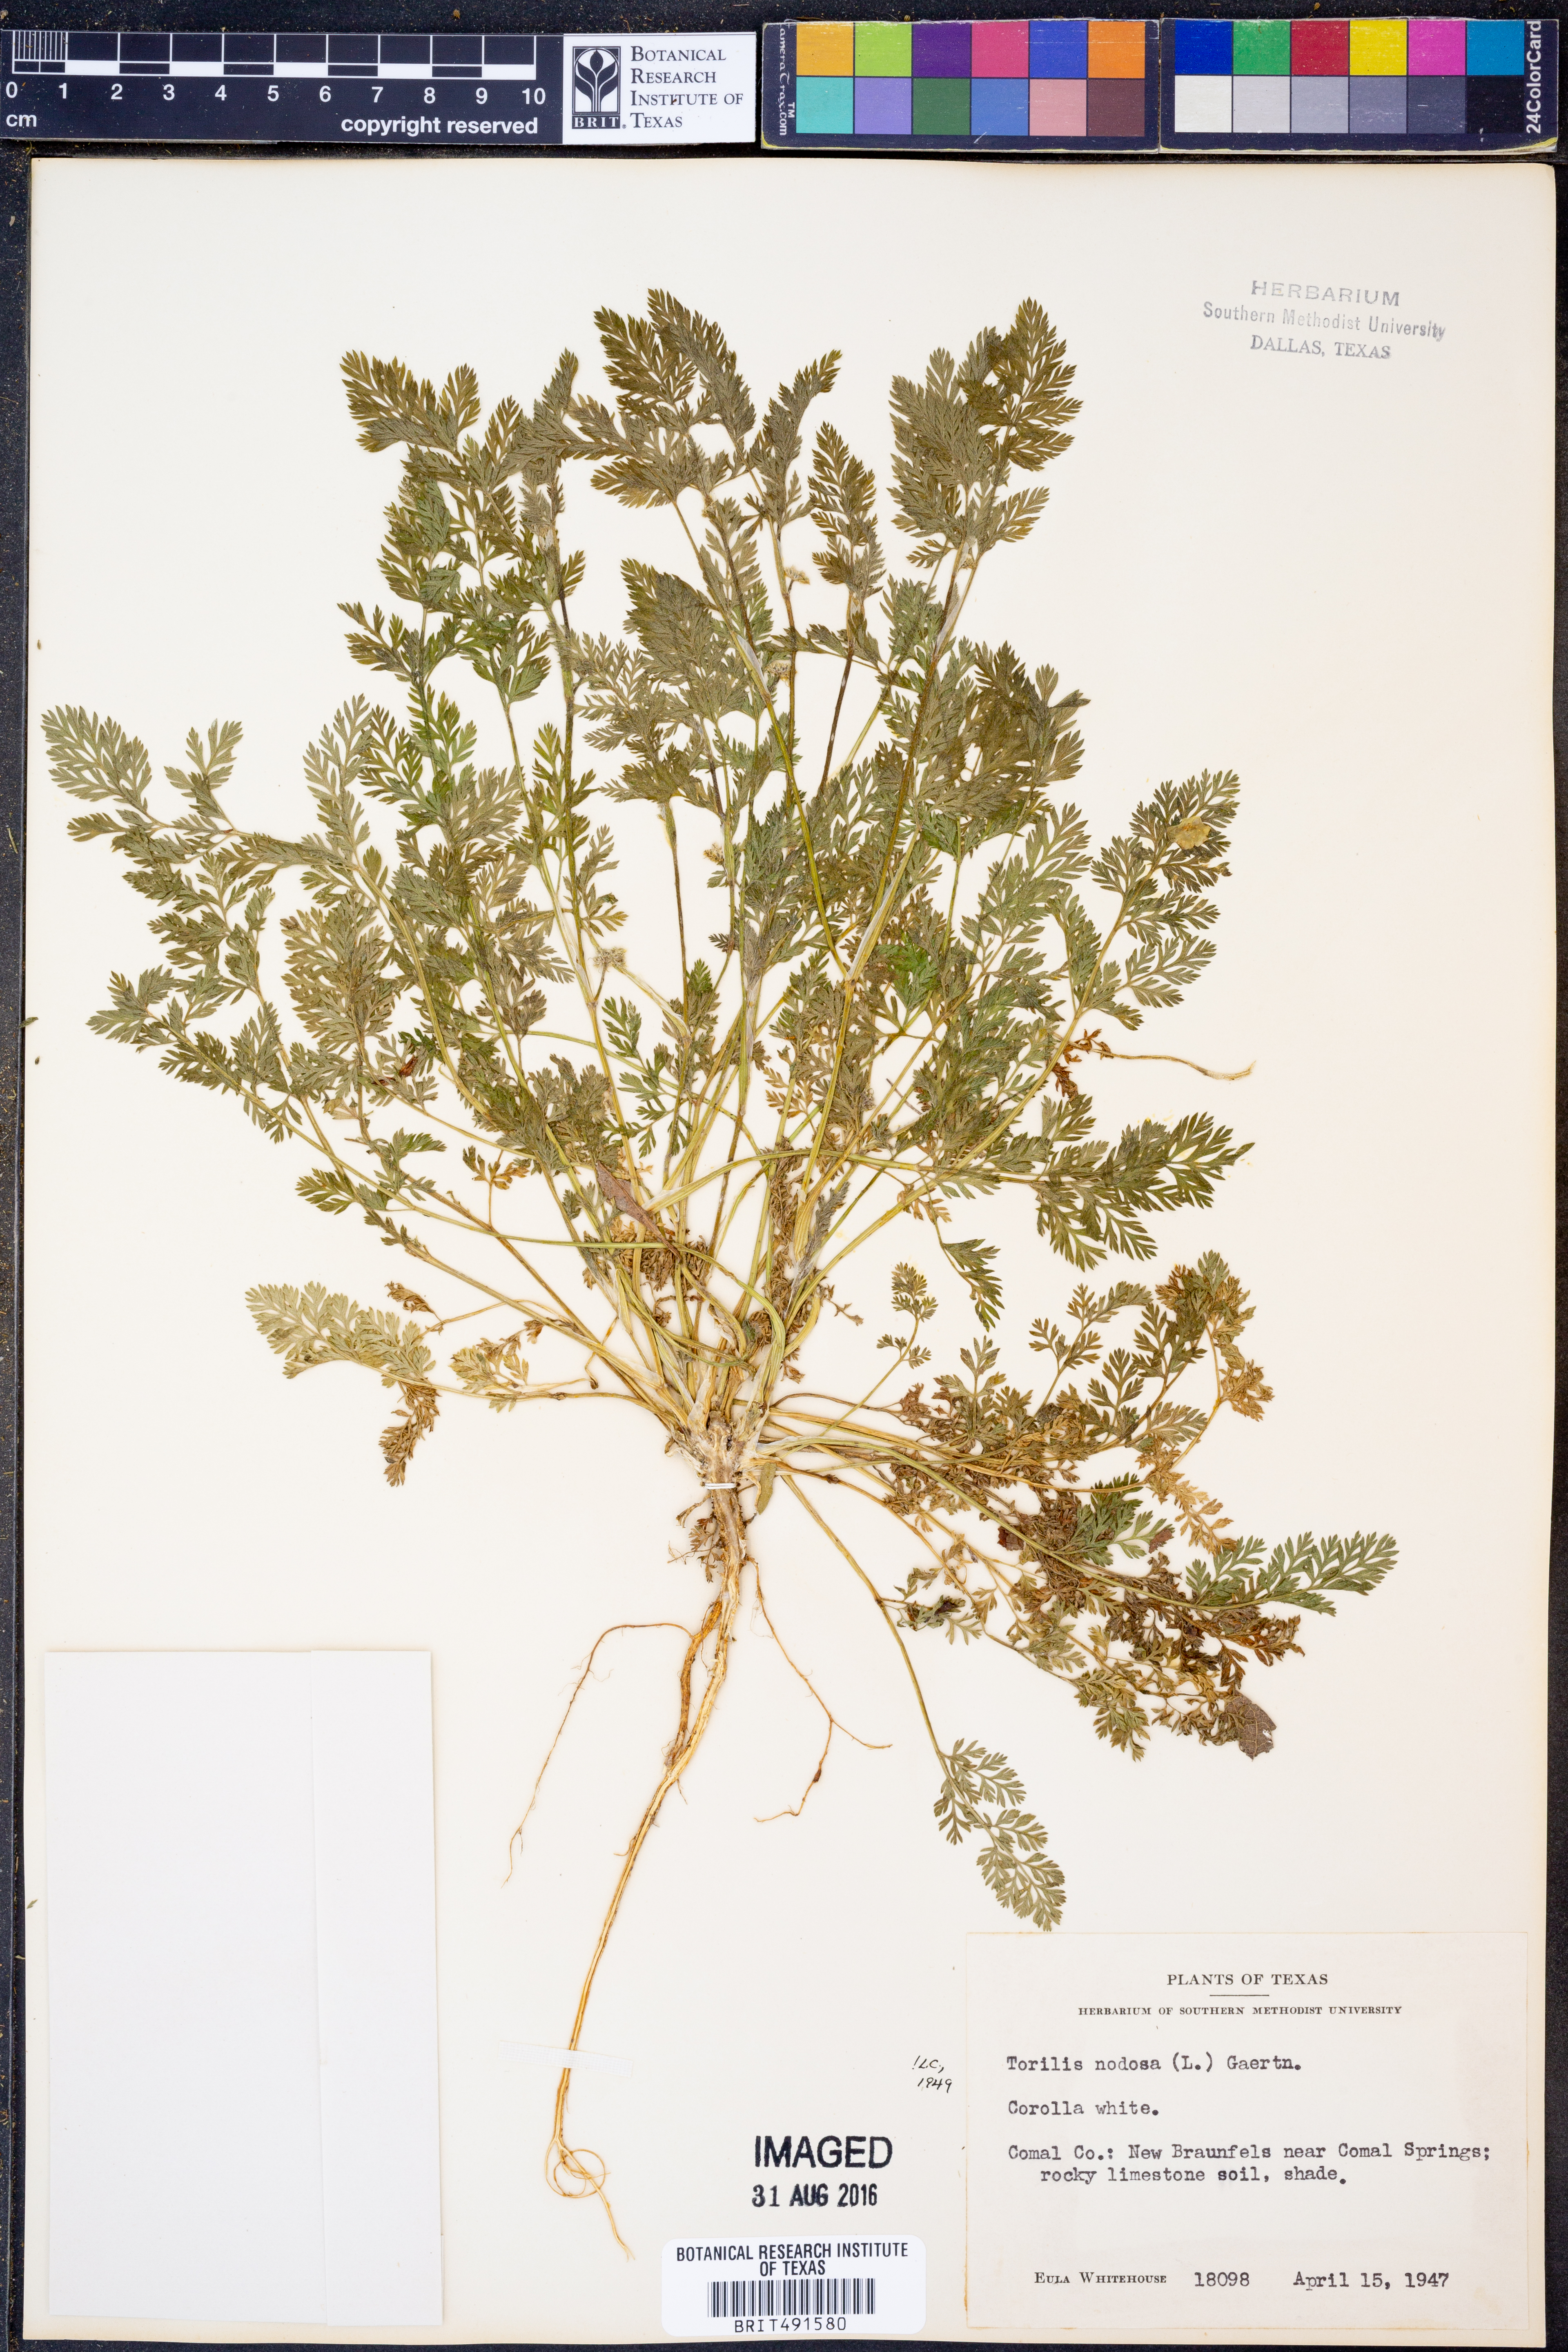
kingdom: Plantae
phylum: Tracheophyta
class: Magnoliopsida
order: Apiales
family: Apiaceae
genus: Torilis
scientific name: Torilis nodosa
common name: Knotted hedge-parsley
